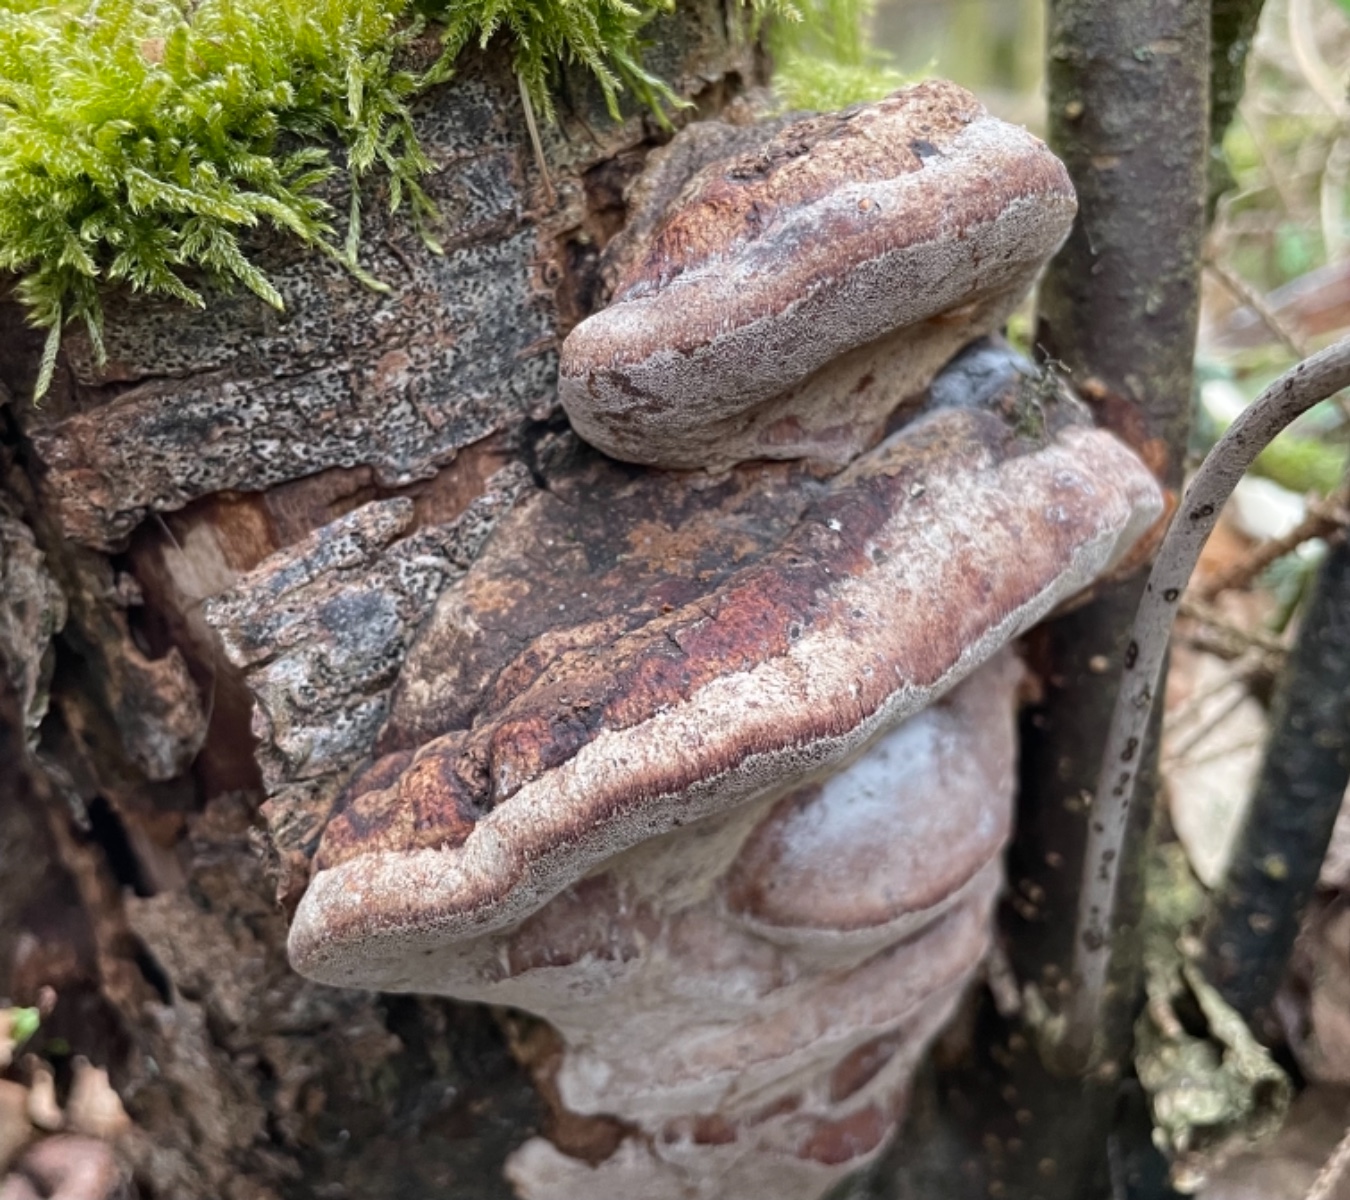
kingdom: Fungi
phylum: Basidiomycota
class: Agaricomycetes
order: Hymenochaetales
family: Hymenochaetaceae
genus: Phellinus
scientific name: Phellinus pomaceus
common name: blomme-ildporesvamp
